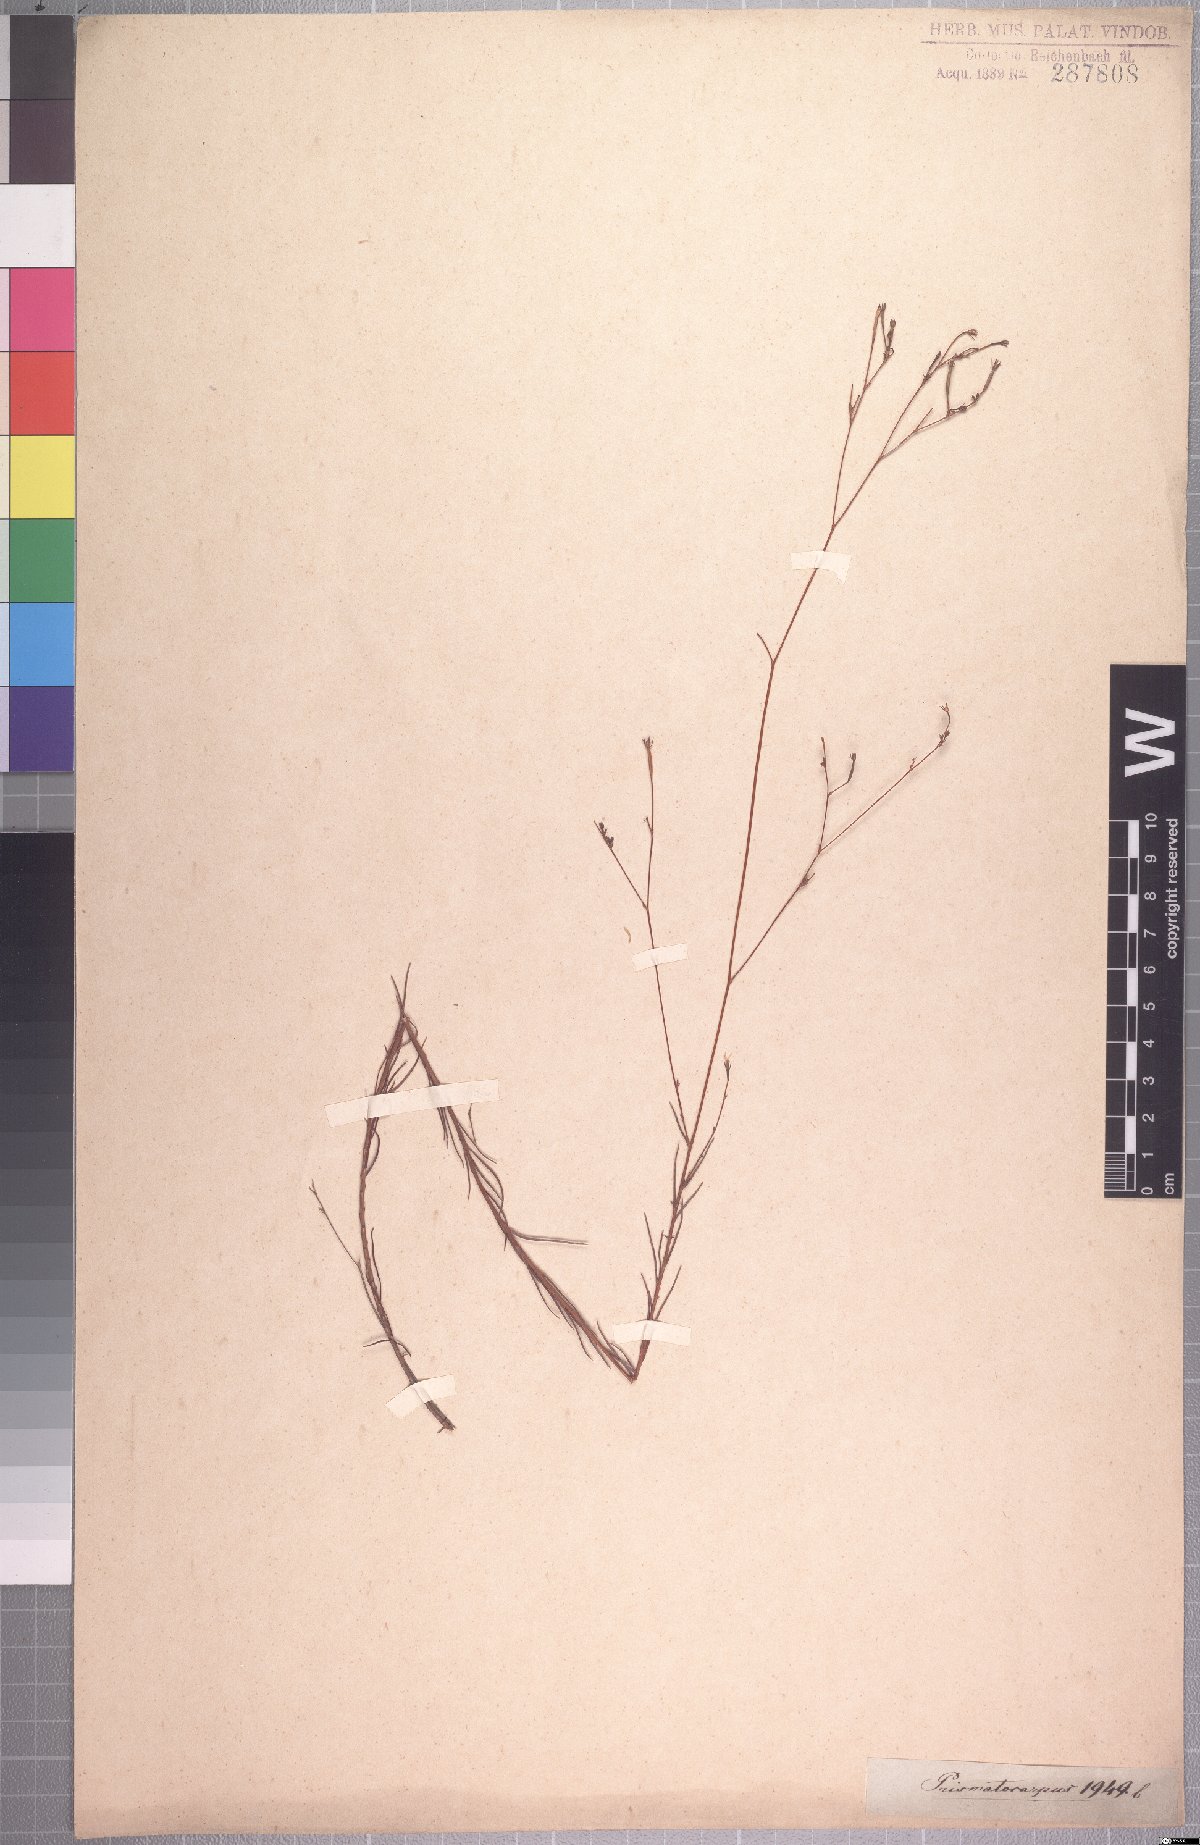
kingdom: Plantae
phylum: Tracheophyta
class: Magnoliopsida
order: Asterales
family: Campanulaceae
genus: Prismatocarpus
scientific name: Prismatocarpus brevilobus
